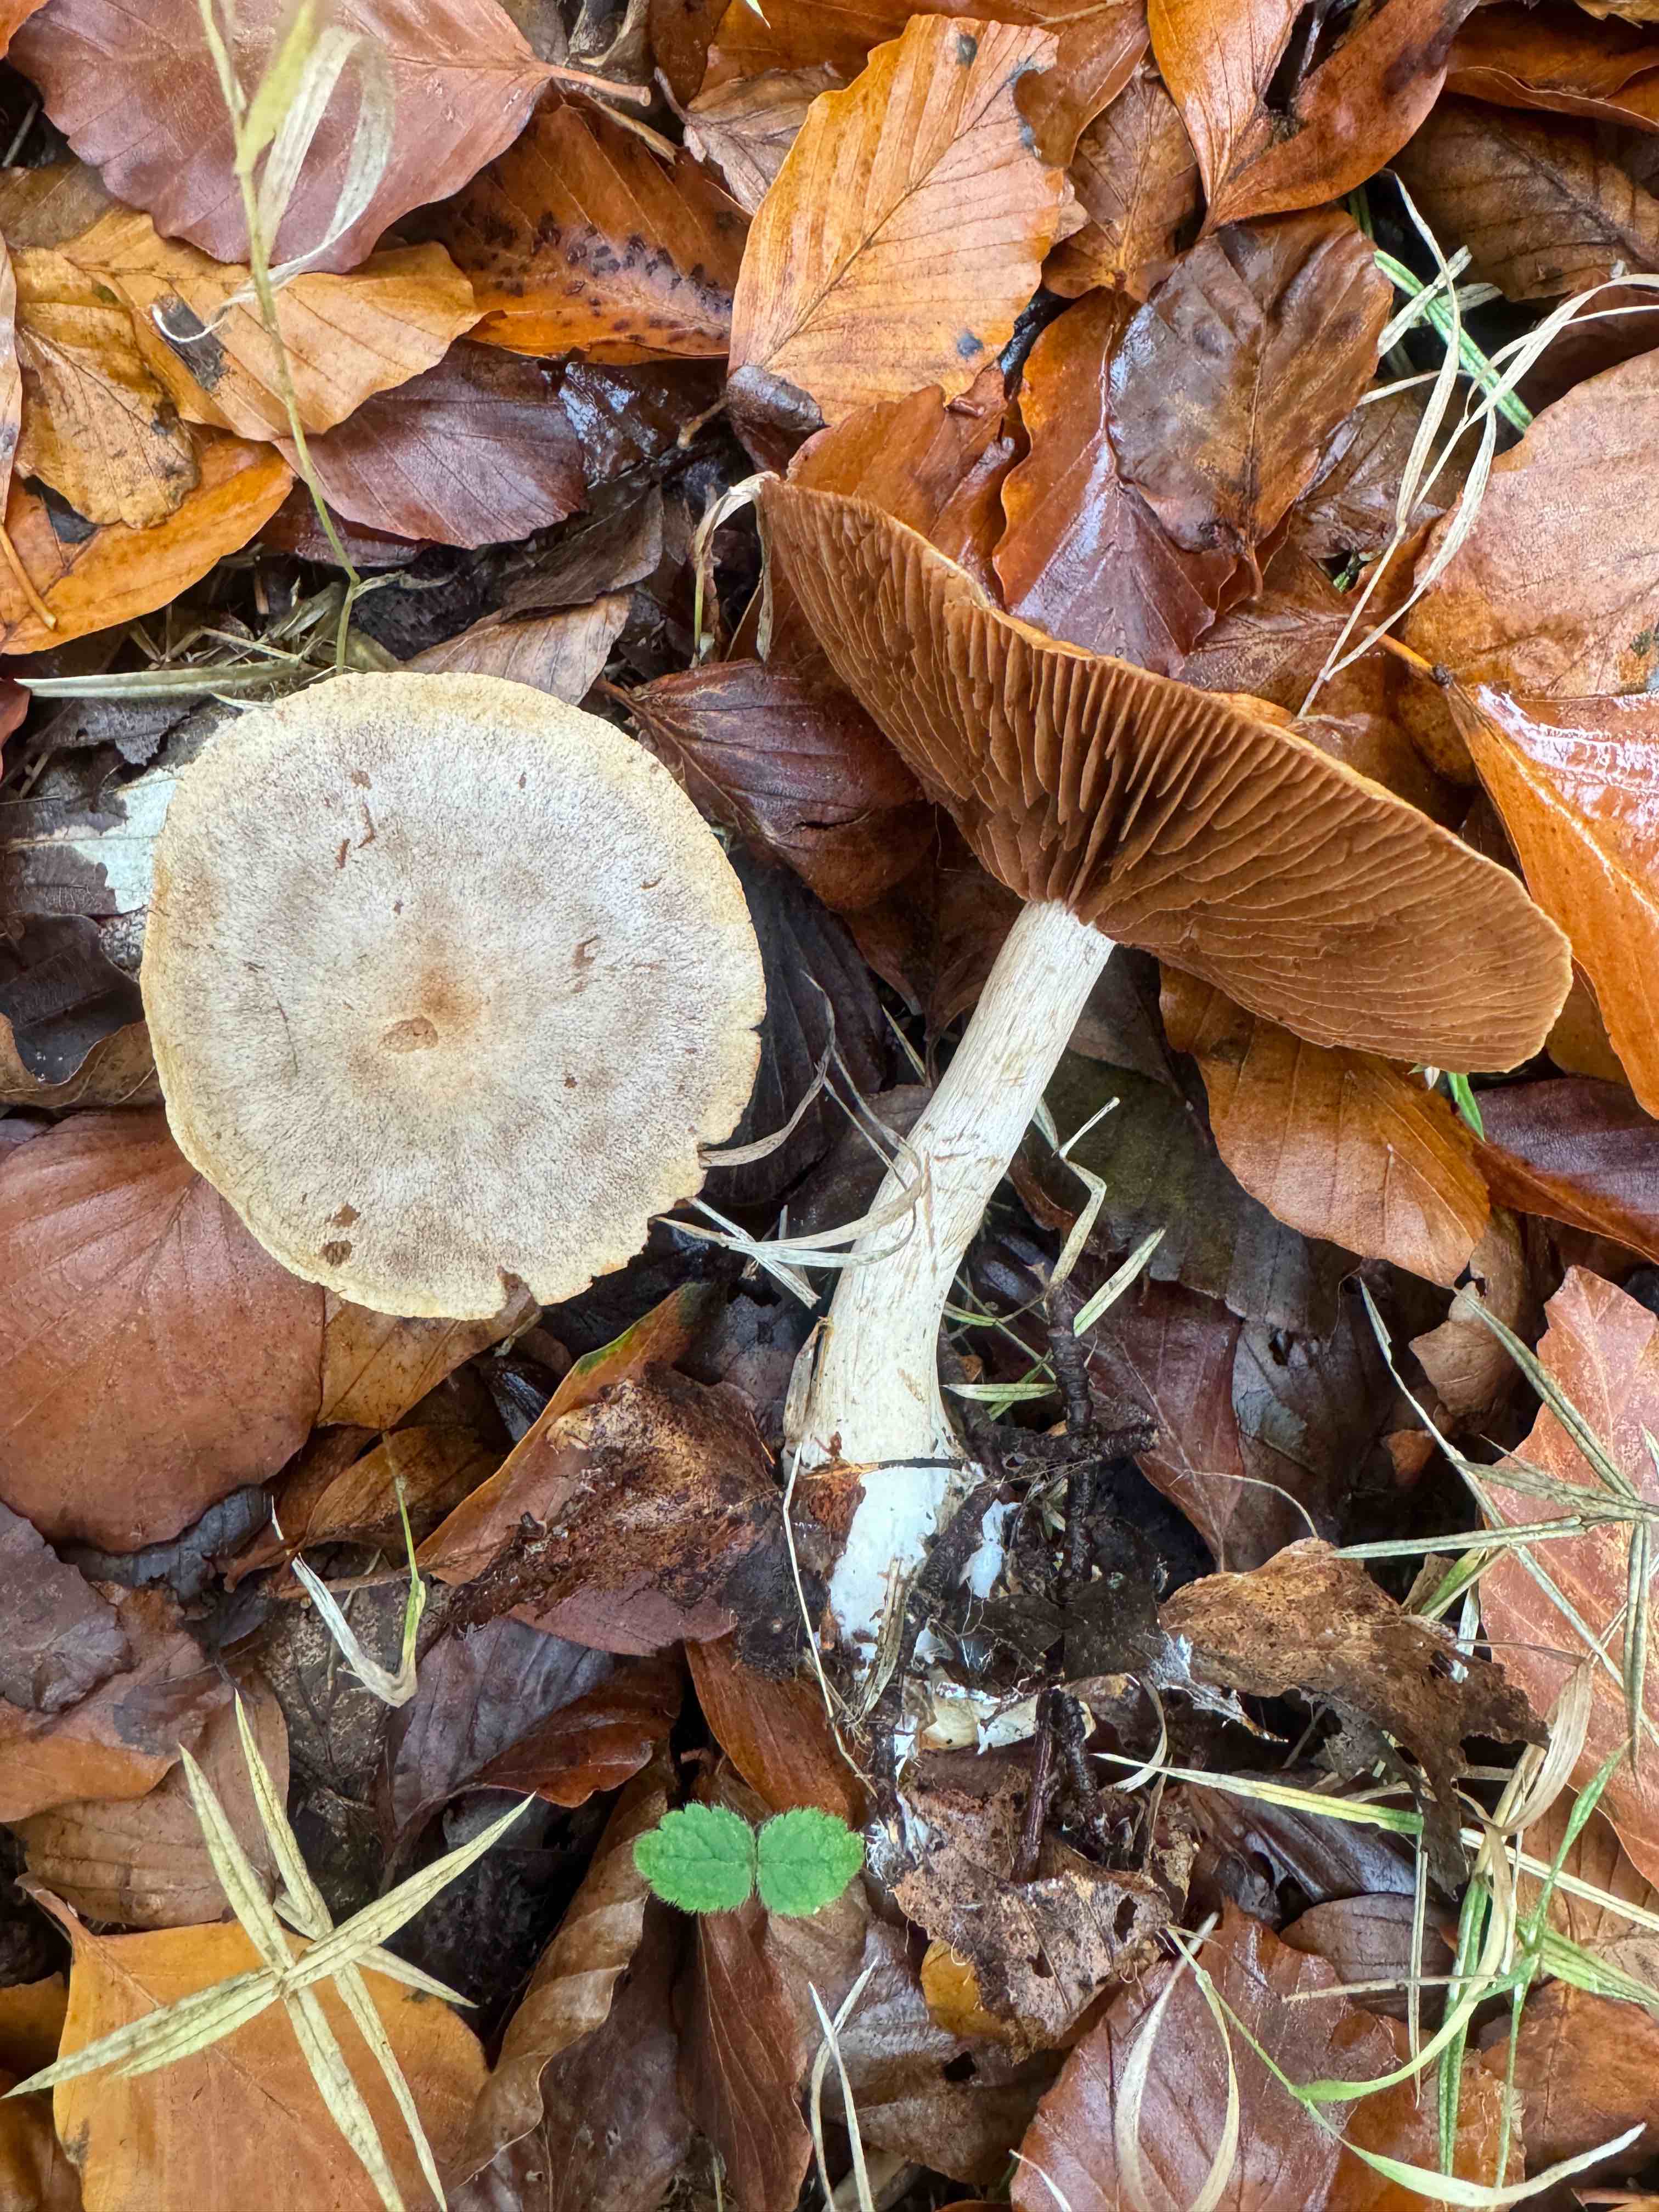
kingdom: Fungi
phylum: Basidiomycota
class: Agaricomycetes
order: Agaricales
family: Cortinariaceae
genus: Cortinarius
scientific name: Cortinarius
